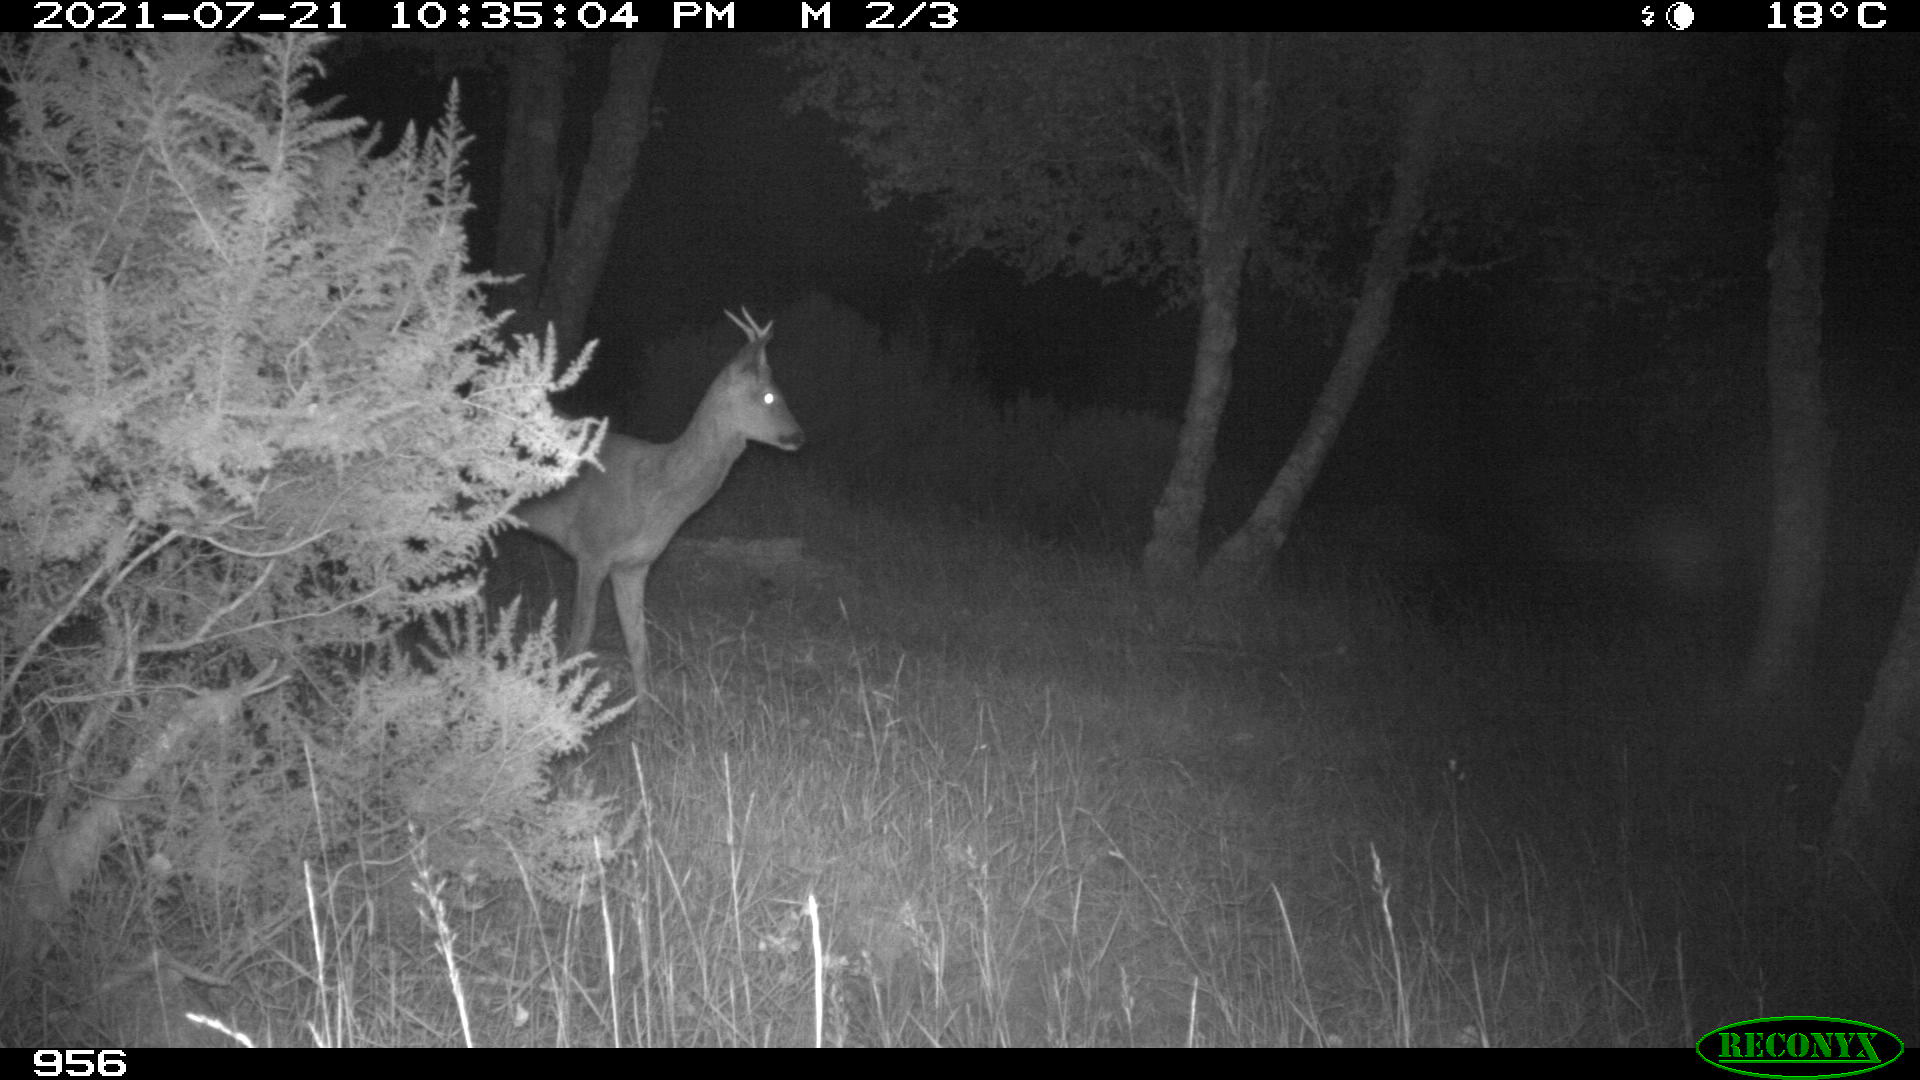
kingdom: Animalia
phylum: Chordata
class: Mammalia
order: Artiodactyla
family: Cervidae
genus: Capreolus
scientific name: Capreolus capreolus
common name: Western roe deer
